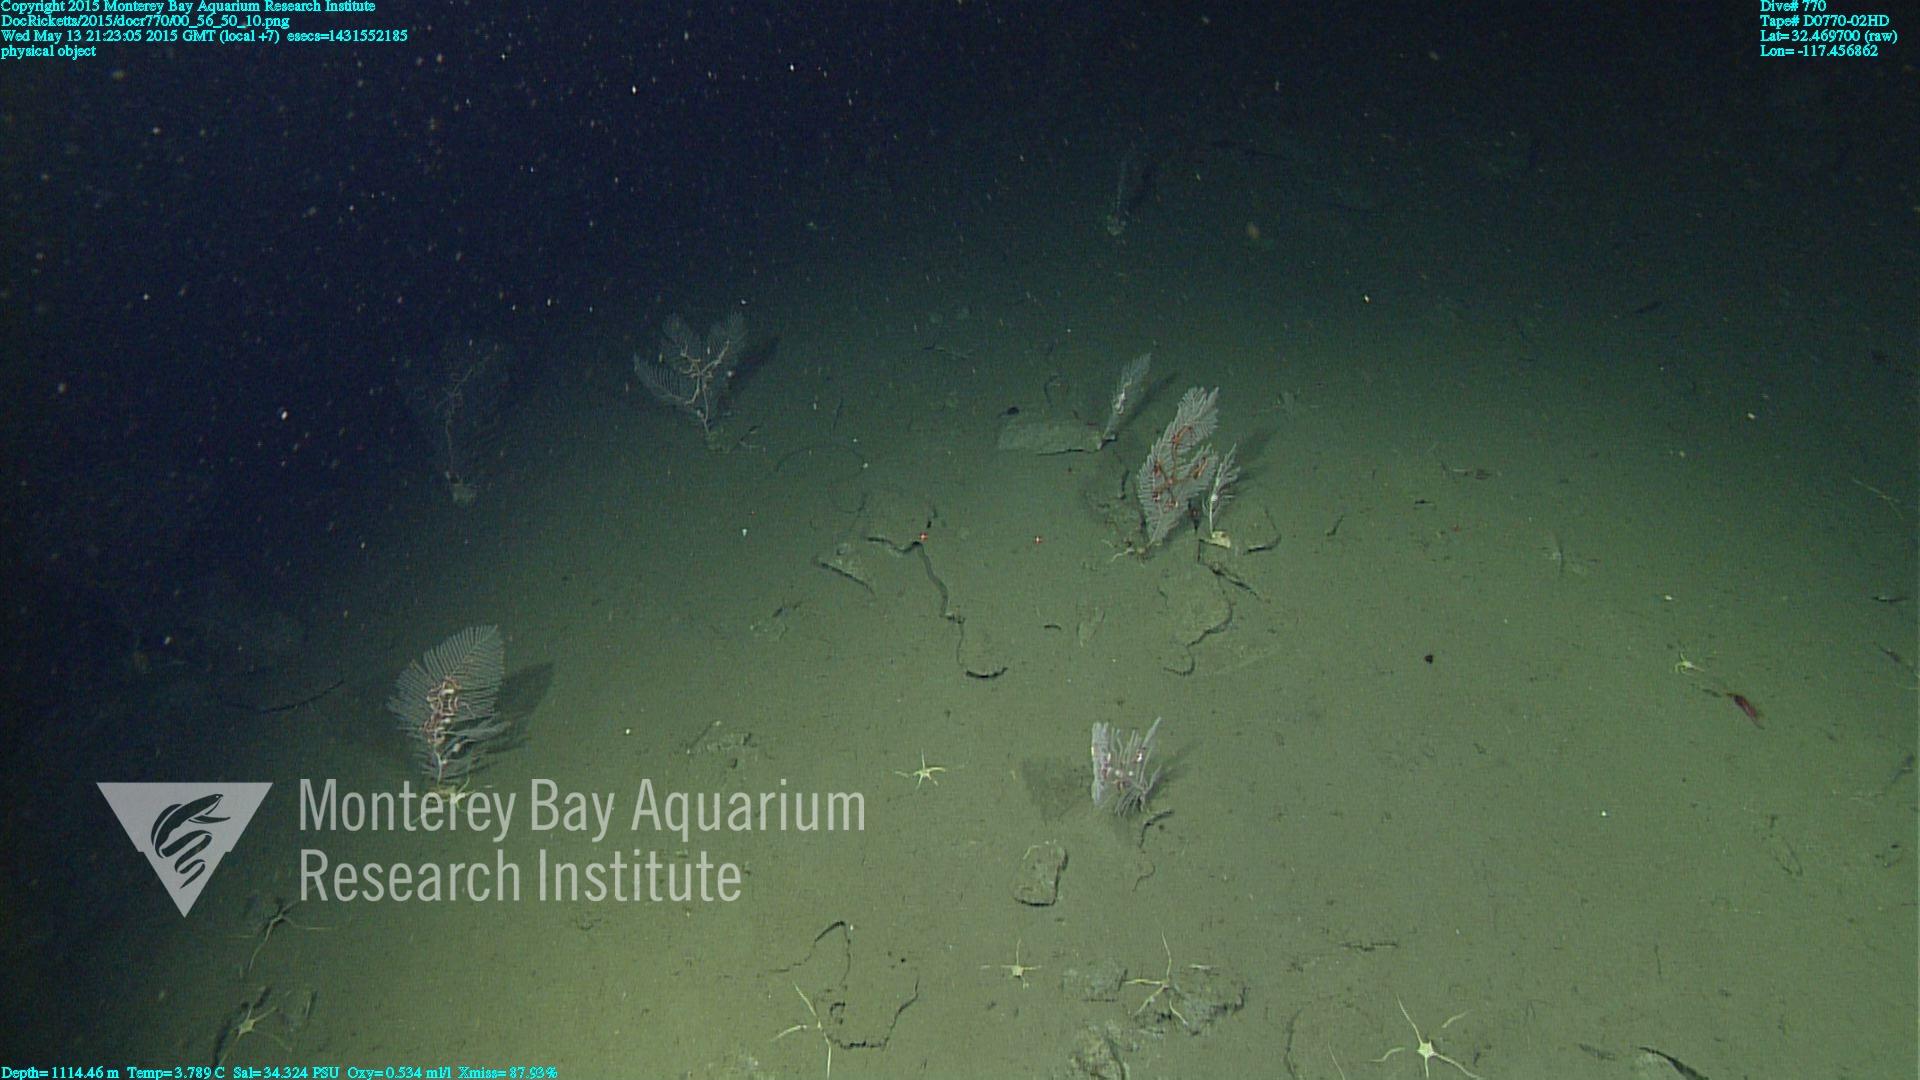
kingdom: Animalia
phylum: Cnidaria
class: Anthozoa
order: Scleralcyonacea
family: Primnoidae
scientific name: Primnoidae
